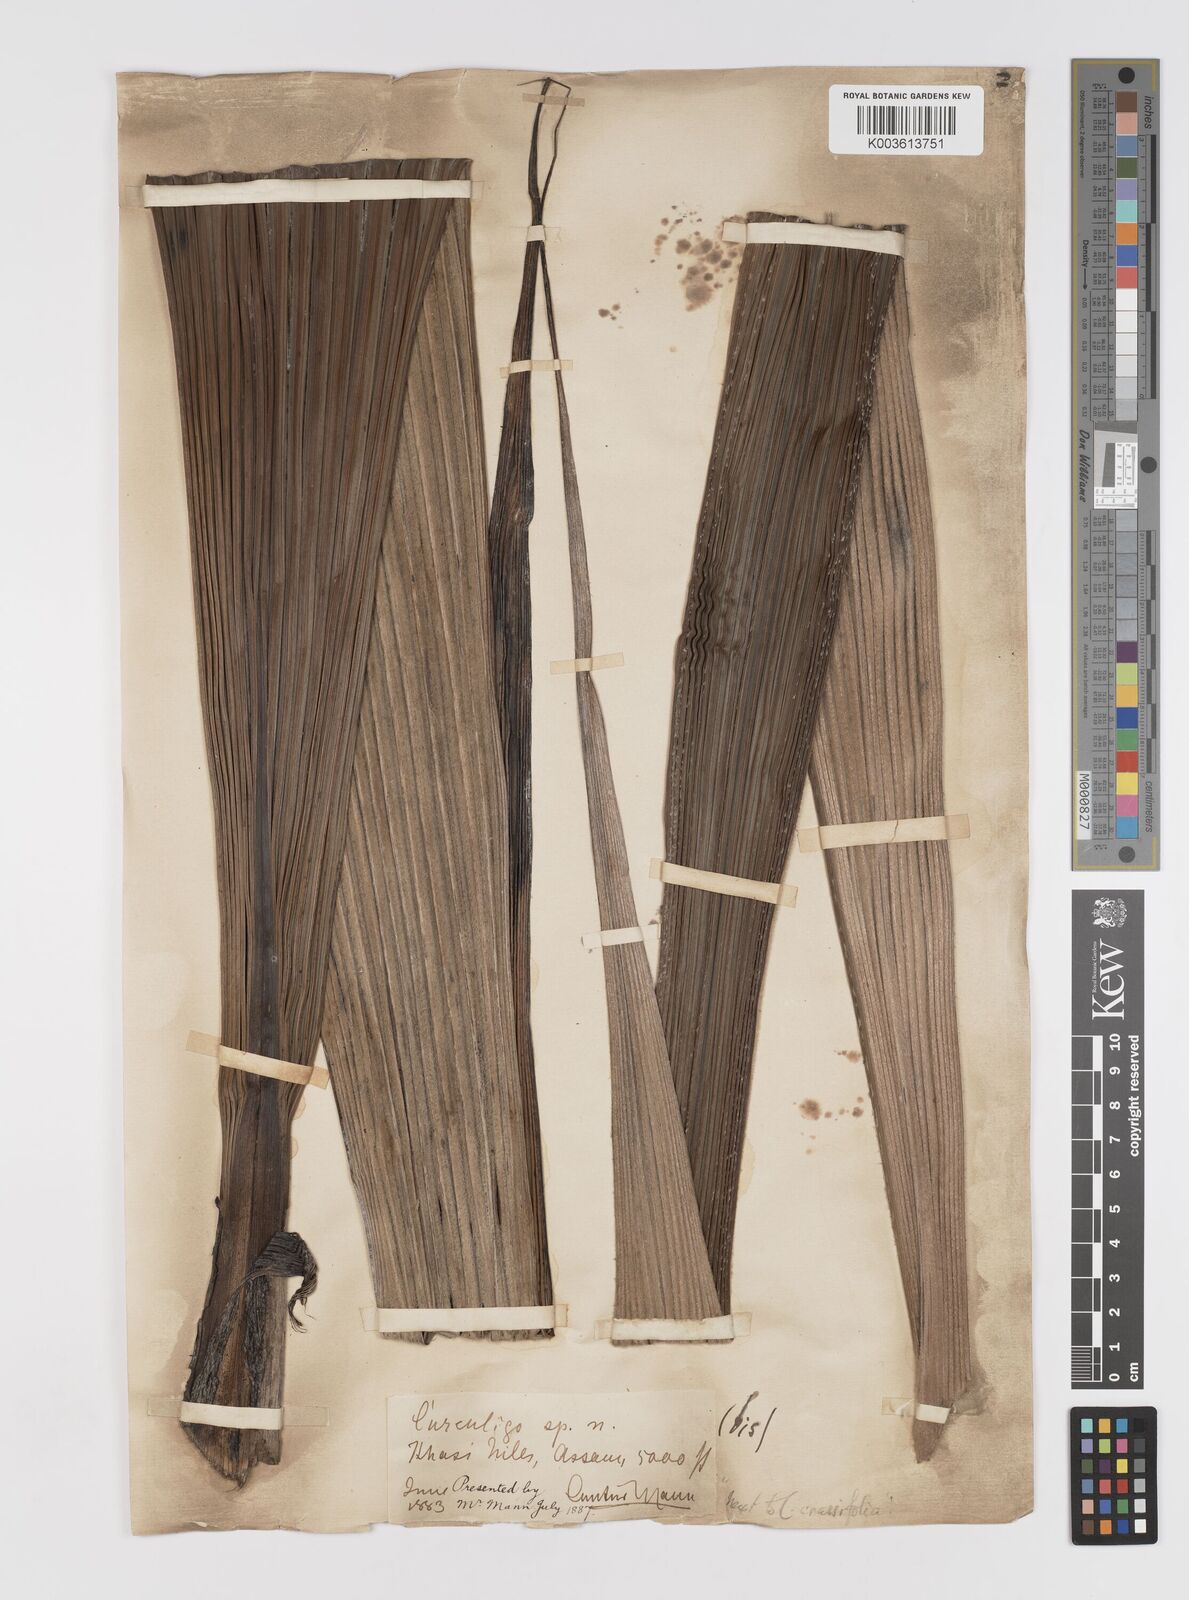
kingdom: Plantae
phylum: Tracheophyta
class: Liliopsida
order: Asparagales
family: Hypoxidaceae
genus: Curculigo
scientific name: Curculigo crassifolia
